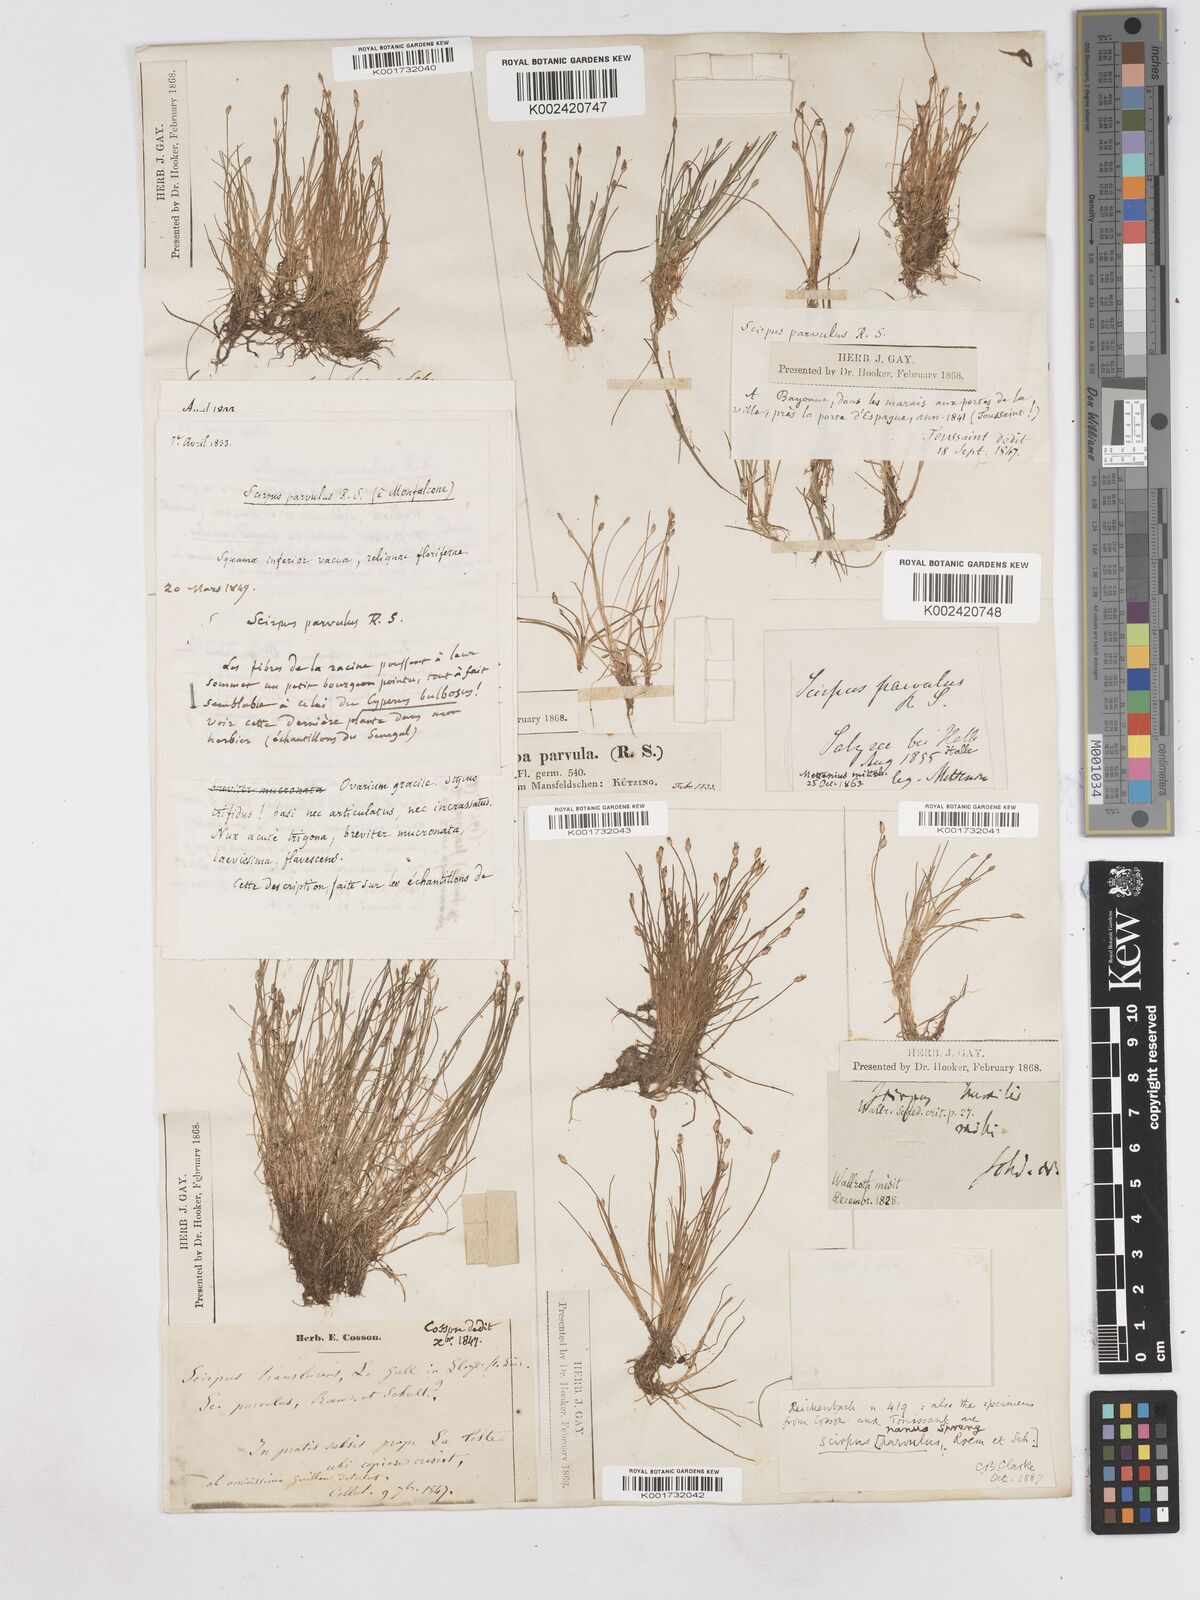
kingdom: Plantae
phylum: Tracheophyta
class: Liliopsida
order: Poales
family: Cyperaceae
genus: Eleocharis
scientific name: Eleocharis parvula
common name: Dwarf spike-rush
